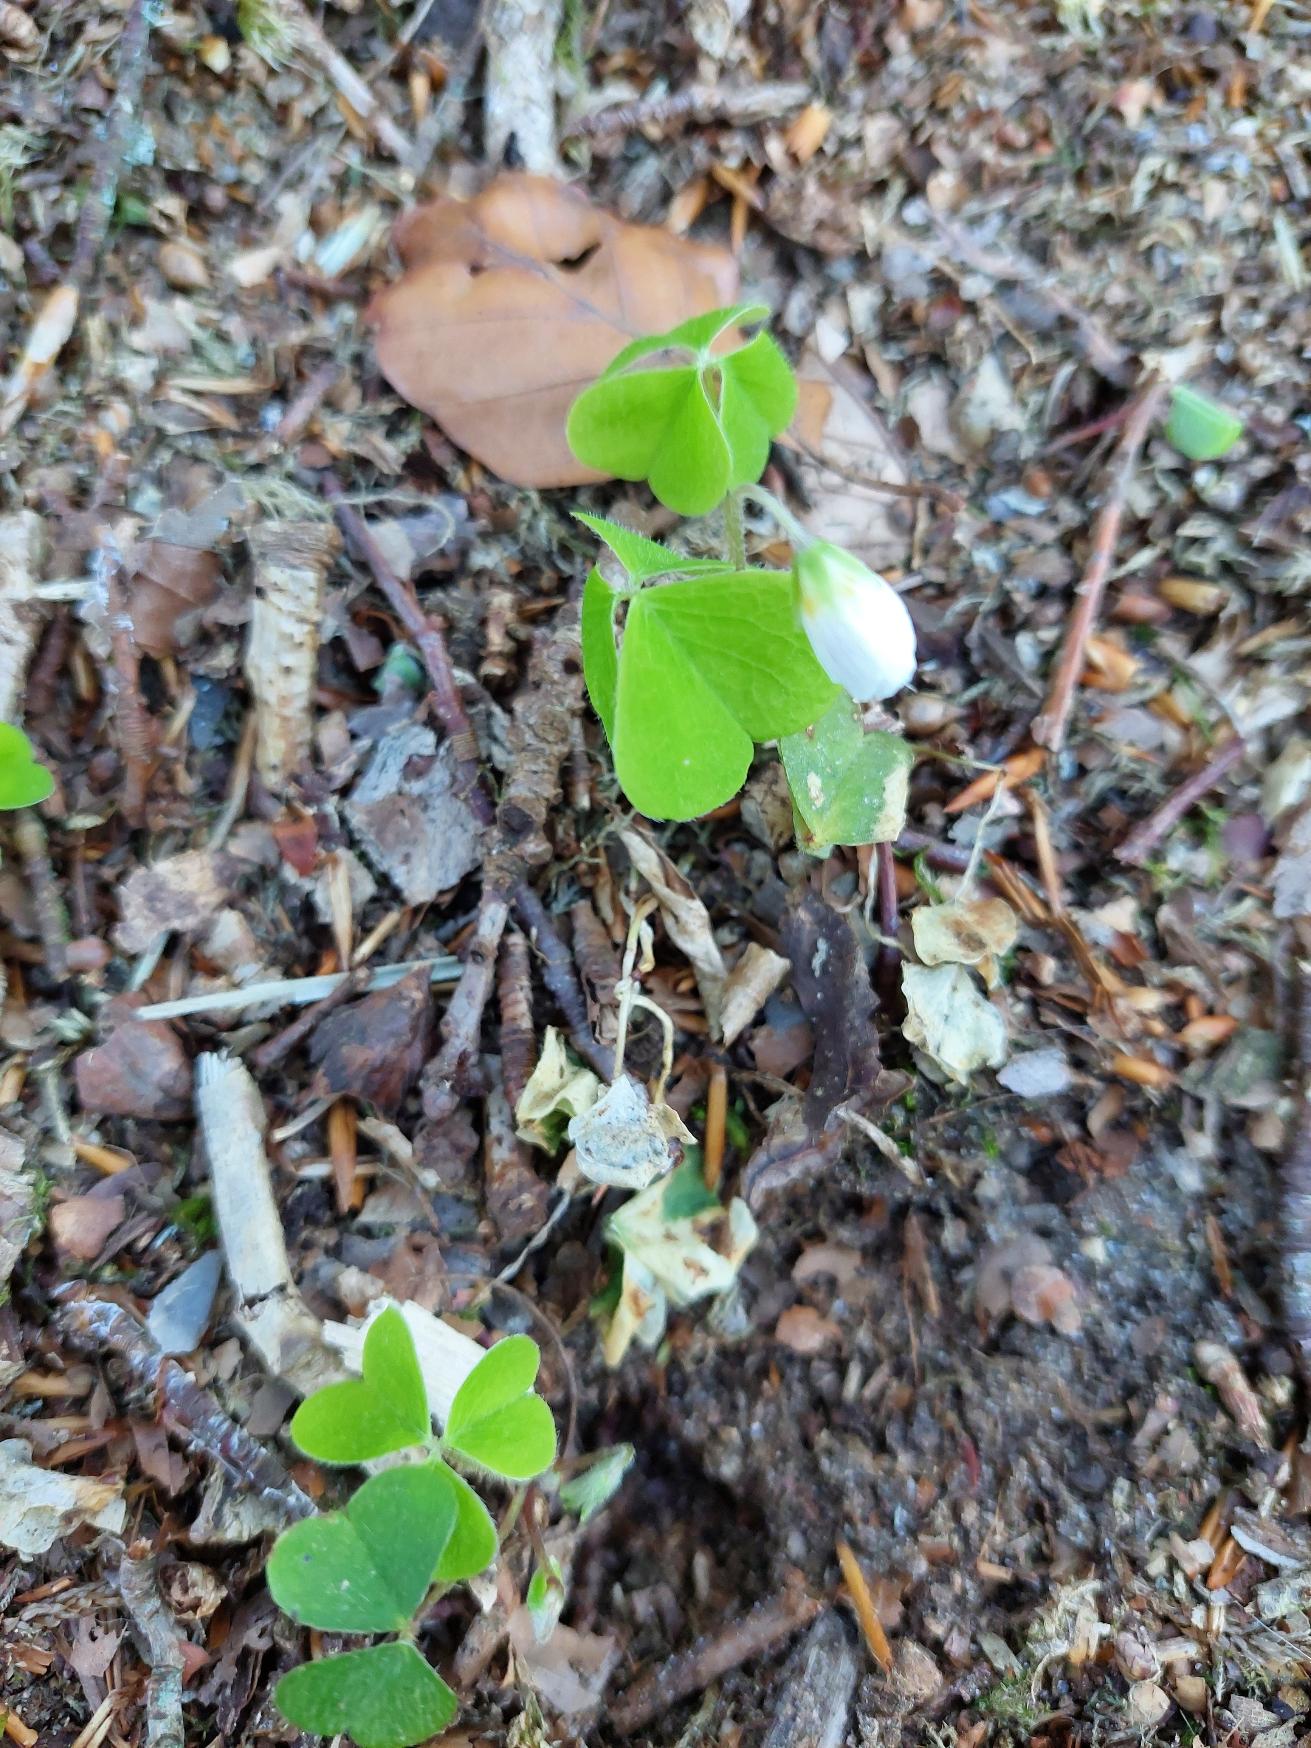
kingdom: Plantae
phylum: Tracheophyta
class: Magnoliopsida
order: Oxalidales
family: Oxalidaceae
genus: Oxalis
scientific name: Oxalis acetosella
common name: Skovsyre
